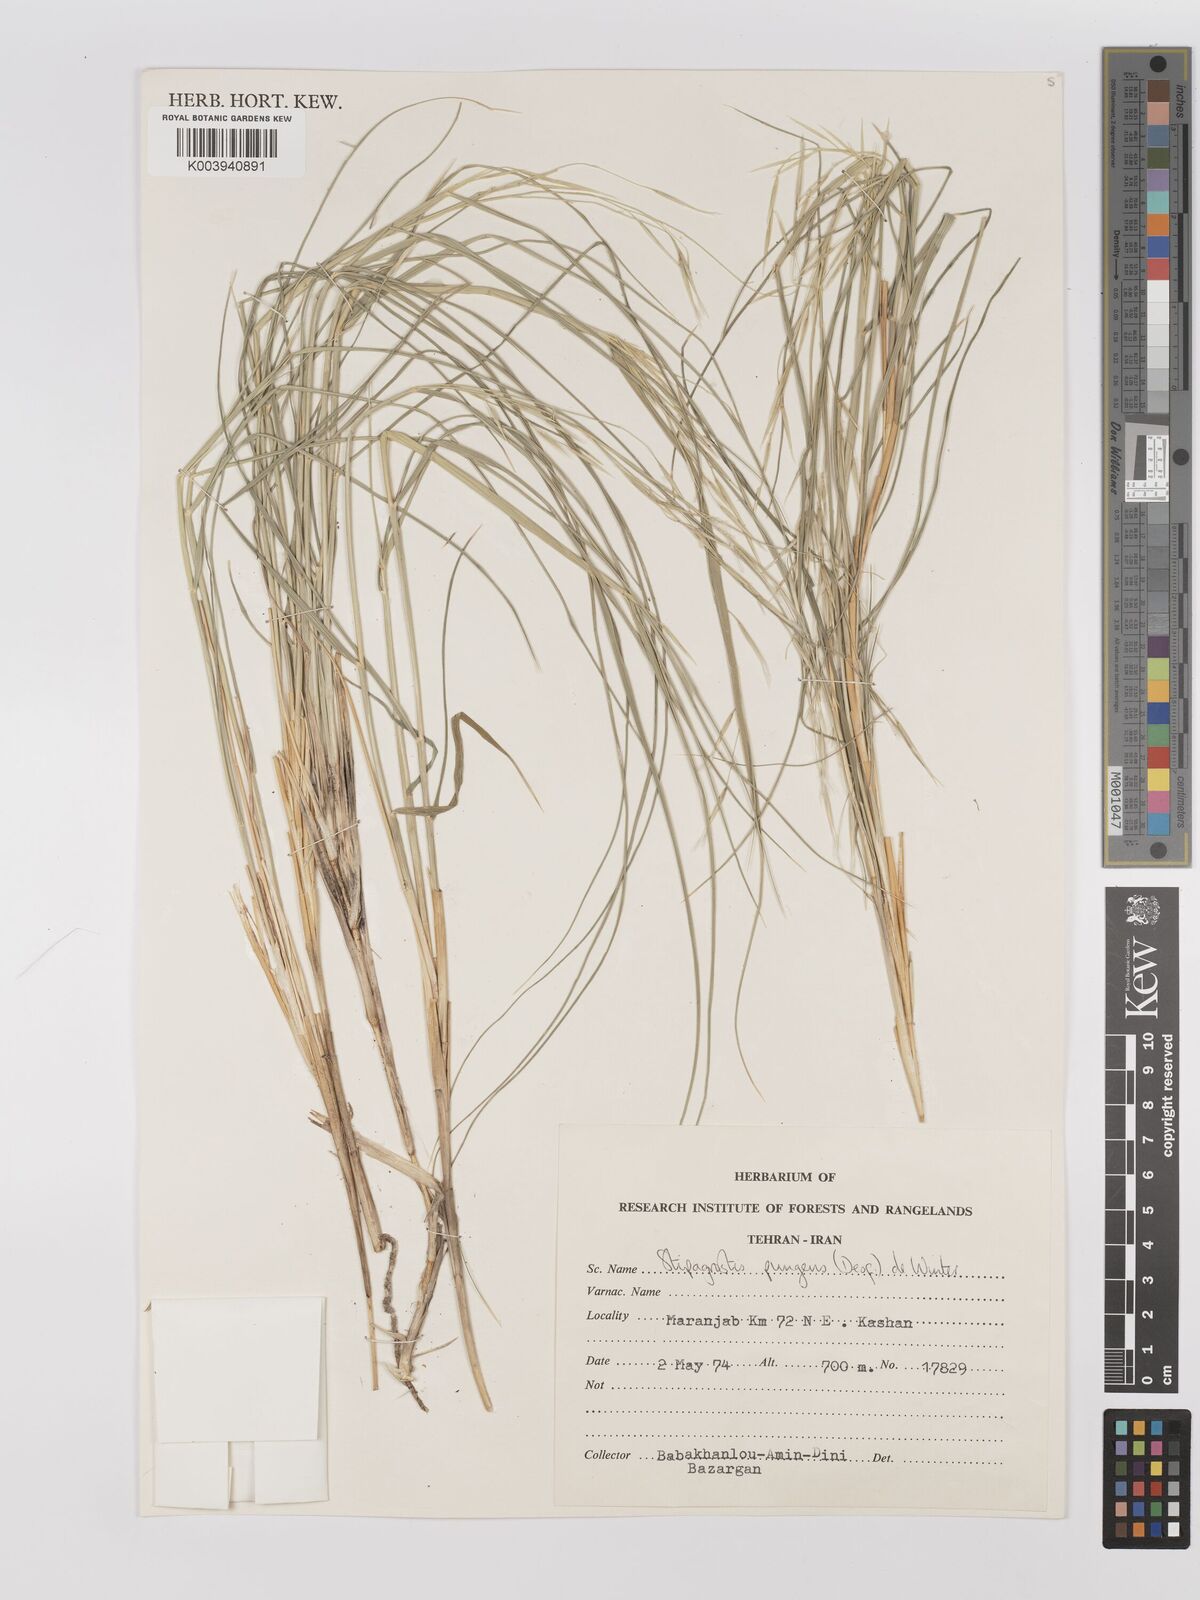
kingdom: Plantae
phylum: Tracheophyta
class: Liliopsida
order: Poales
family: Poaceae
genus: Stipagrostis
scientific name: Stipagrostis
